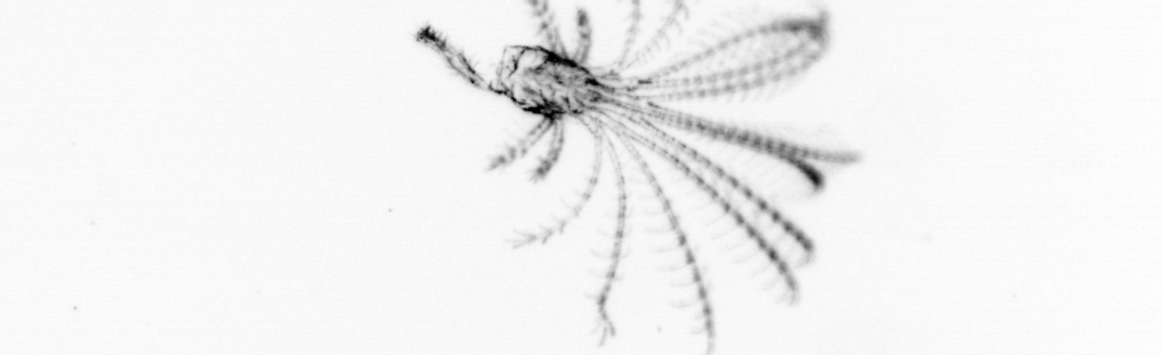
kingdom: Animalia
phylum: Arthropoda
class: Maxillopoda
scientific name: Maxillopoda
